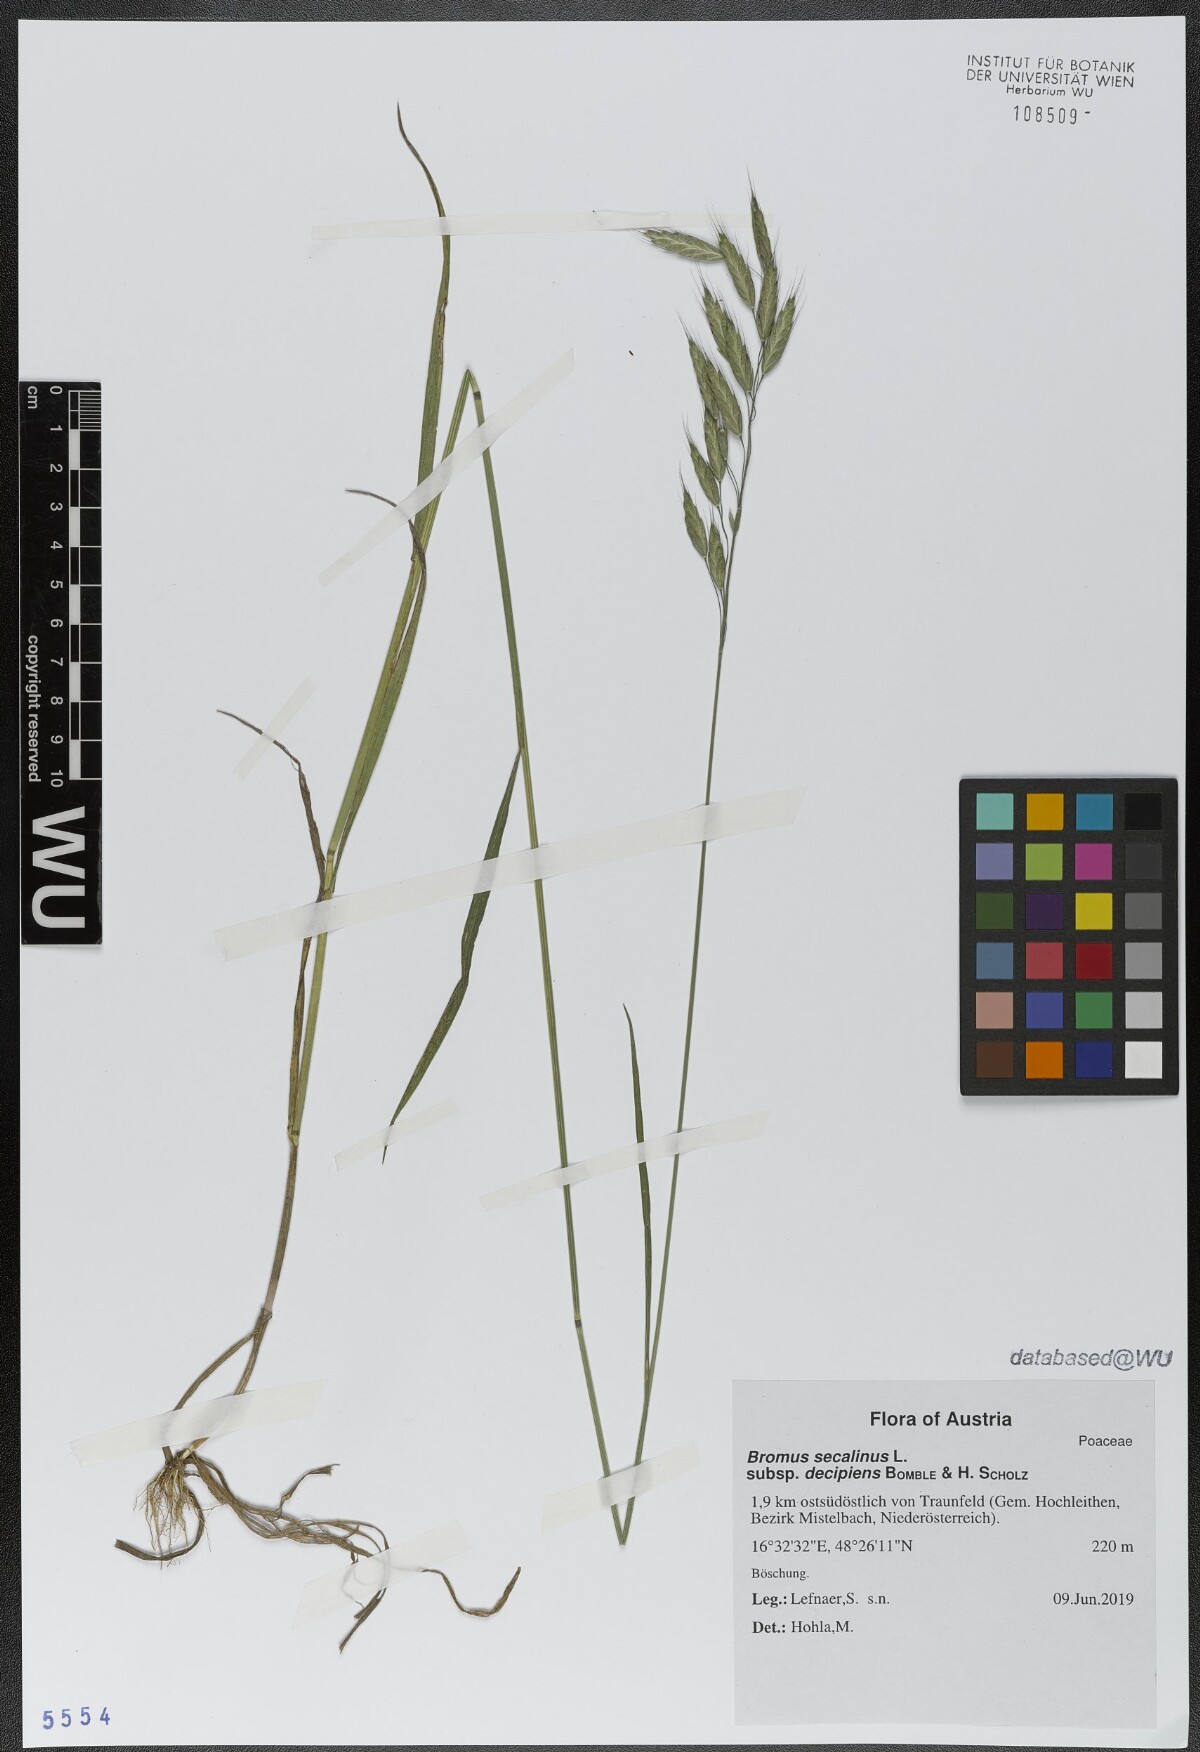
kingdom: Plantae
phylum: Tracheophyta
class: Liliopsida
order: Poales
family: Poaceae
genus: Bromus
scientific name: Bromus commutatus
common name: Meadow brome
